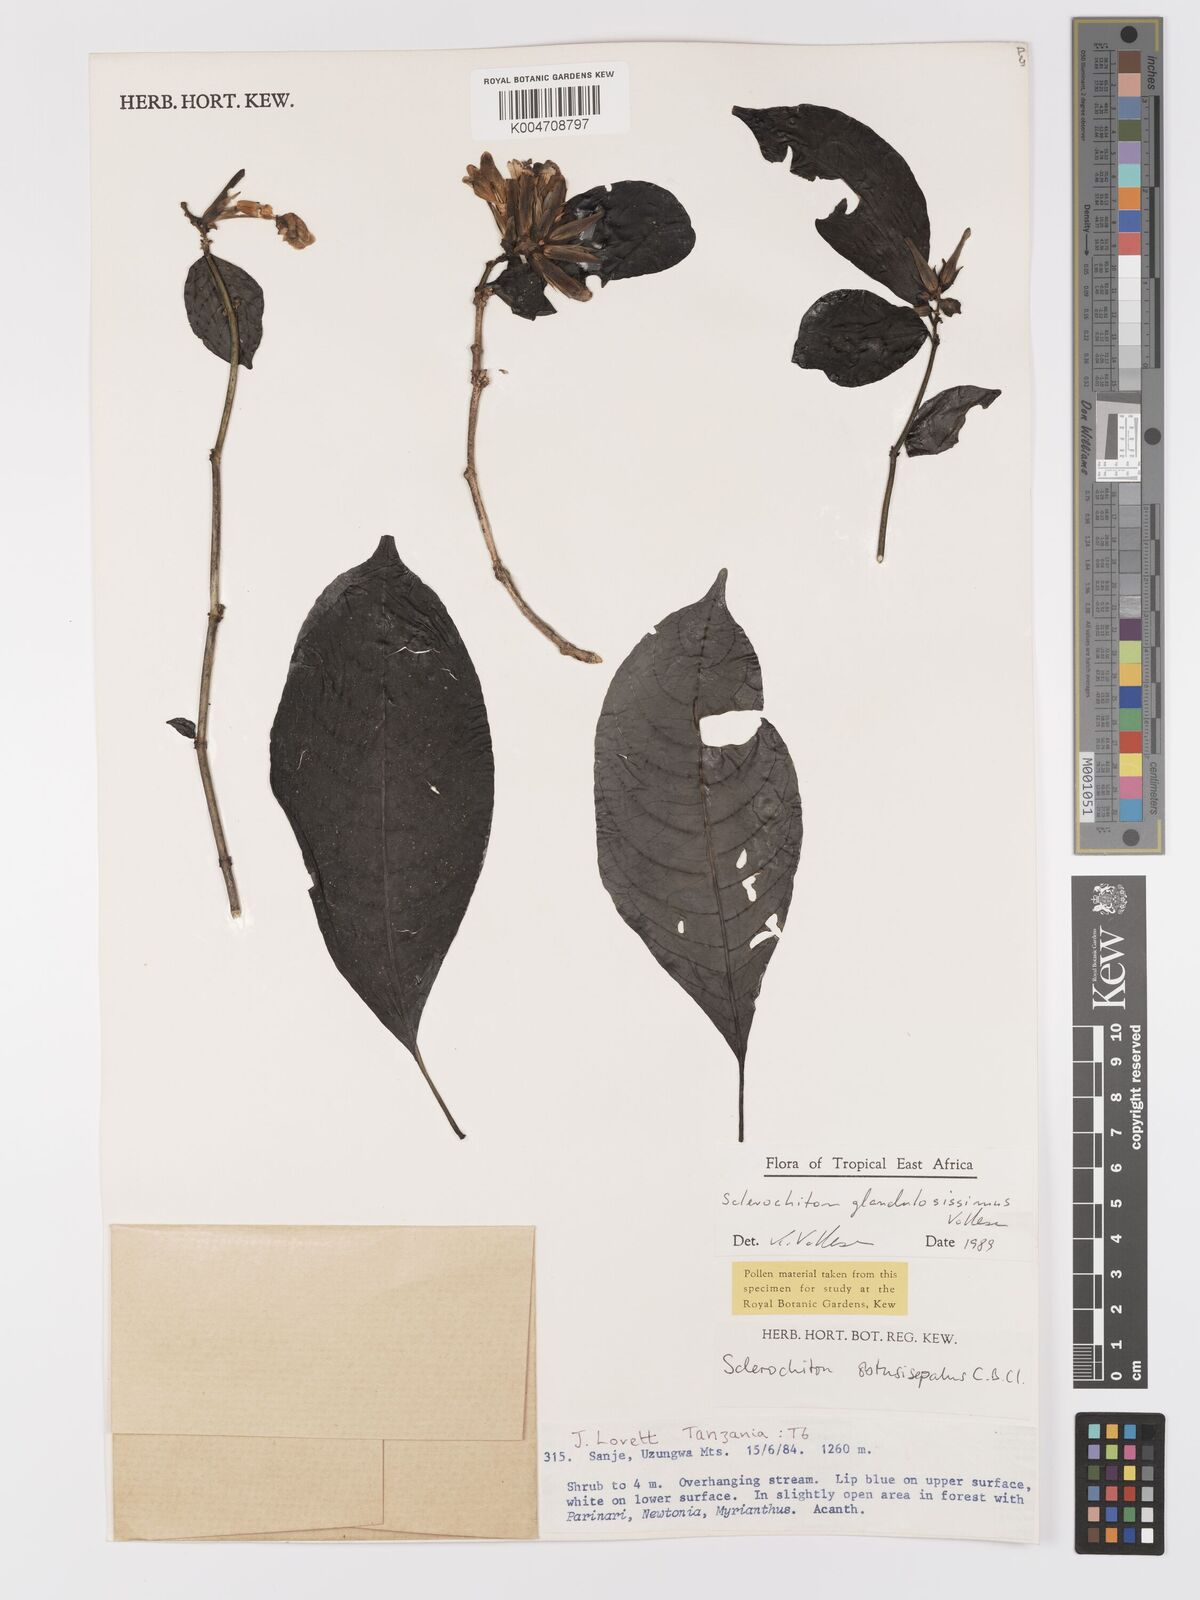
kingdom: Plantae
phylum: Tracheophyta
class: Magnoliopsida
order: Lamiales
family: Acanthaceae
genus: Sclerochiton
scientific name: Sclerochiton glandulosissimus
